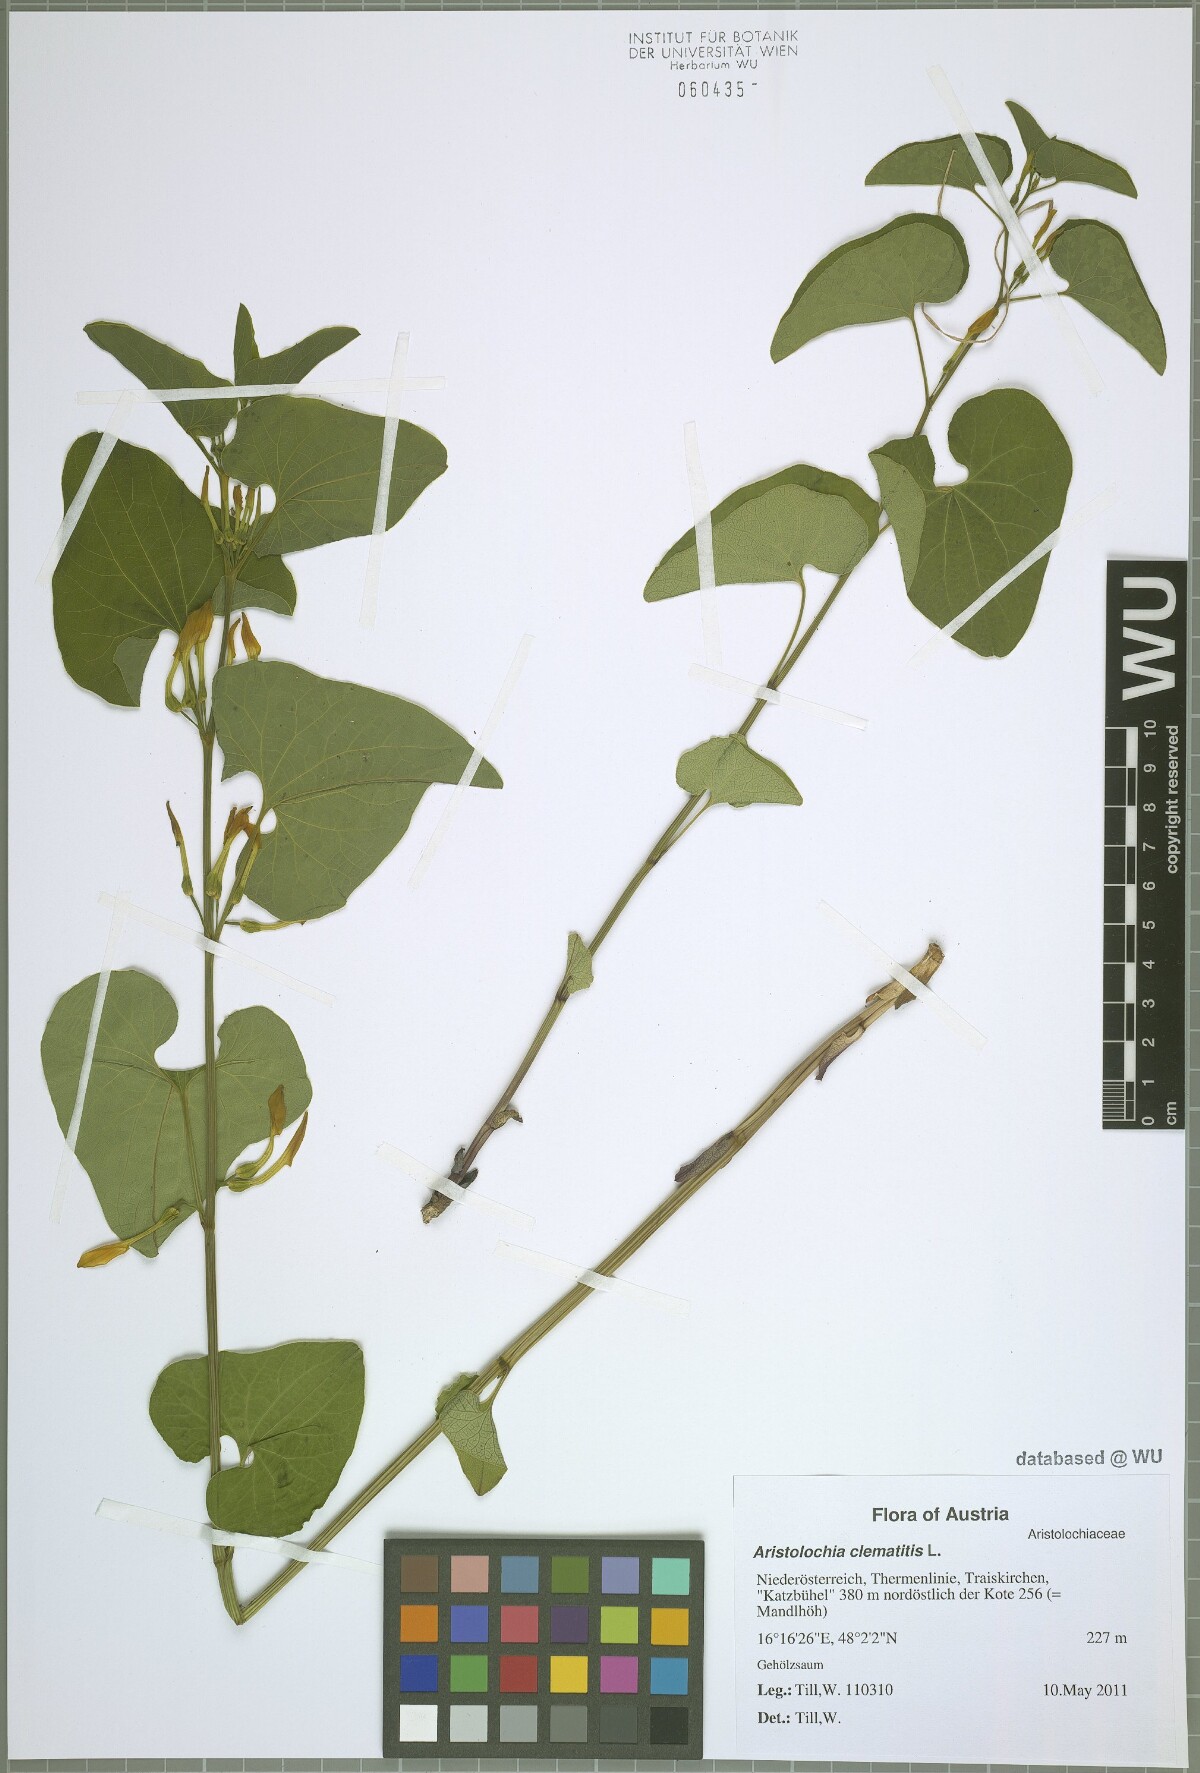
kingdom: Plantae
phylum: Tracheophyta
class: Magnoliopsida
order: Piperales
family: Aristolochiaceae
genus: Aristolochia
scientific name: Aristolochia clematitis
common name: Birthwort
